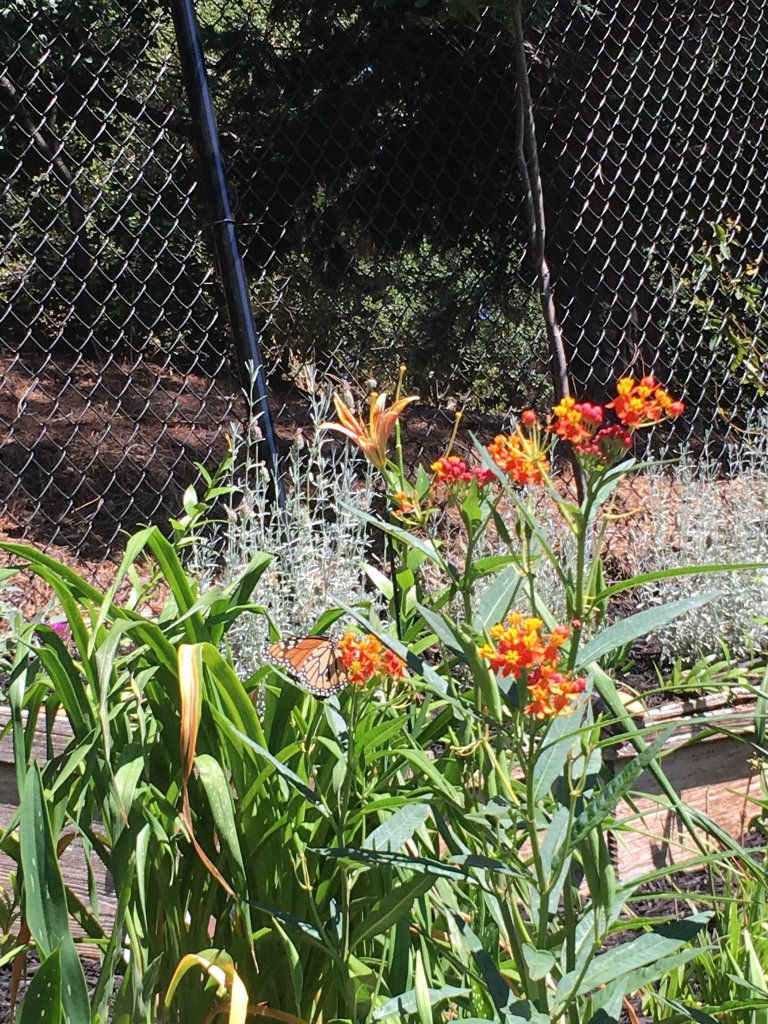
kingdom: Animalia
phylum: Arthropoda
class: Insecta
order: Lepidoptera
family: Nymphalidae
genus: Danaus
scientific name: Danaus plexippus
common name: Monarch
